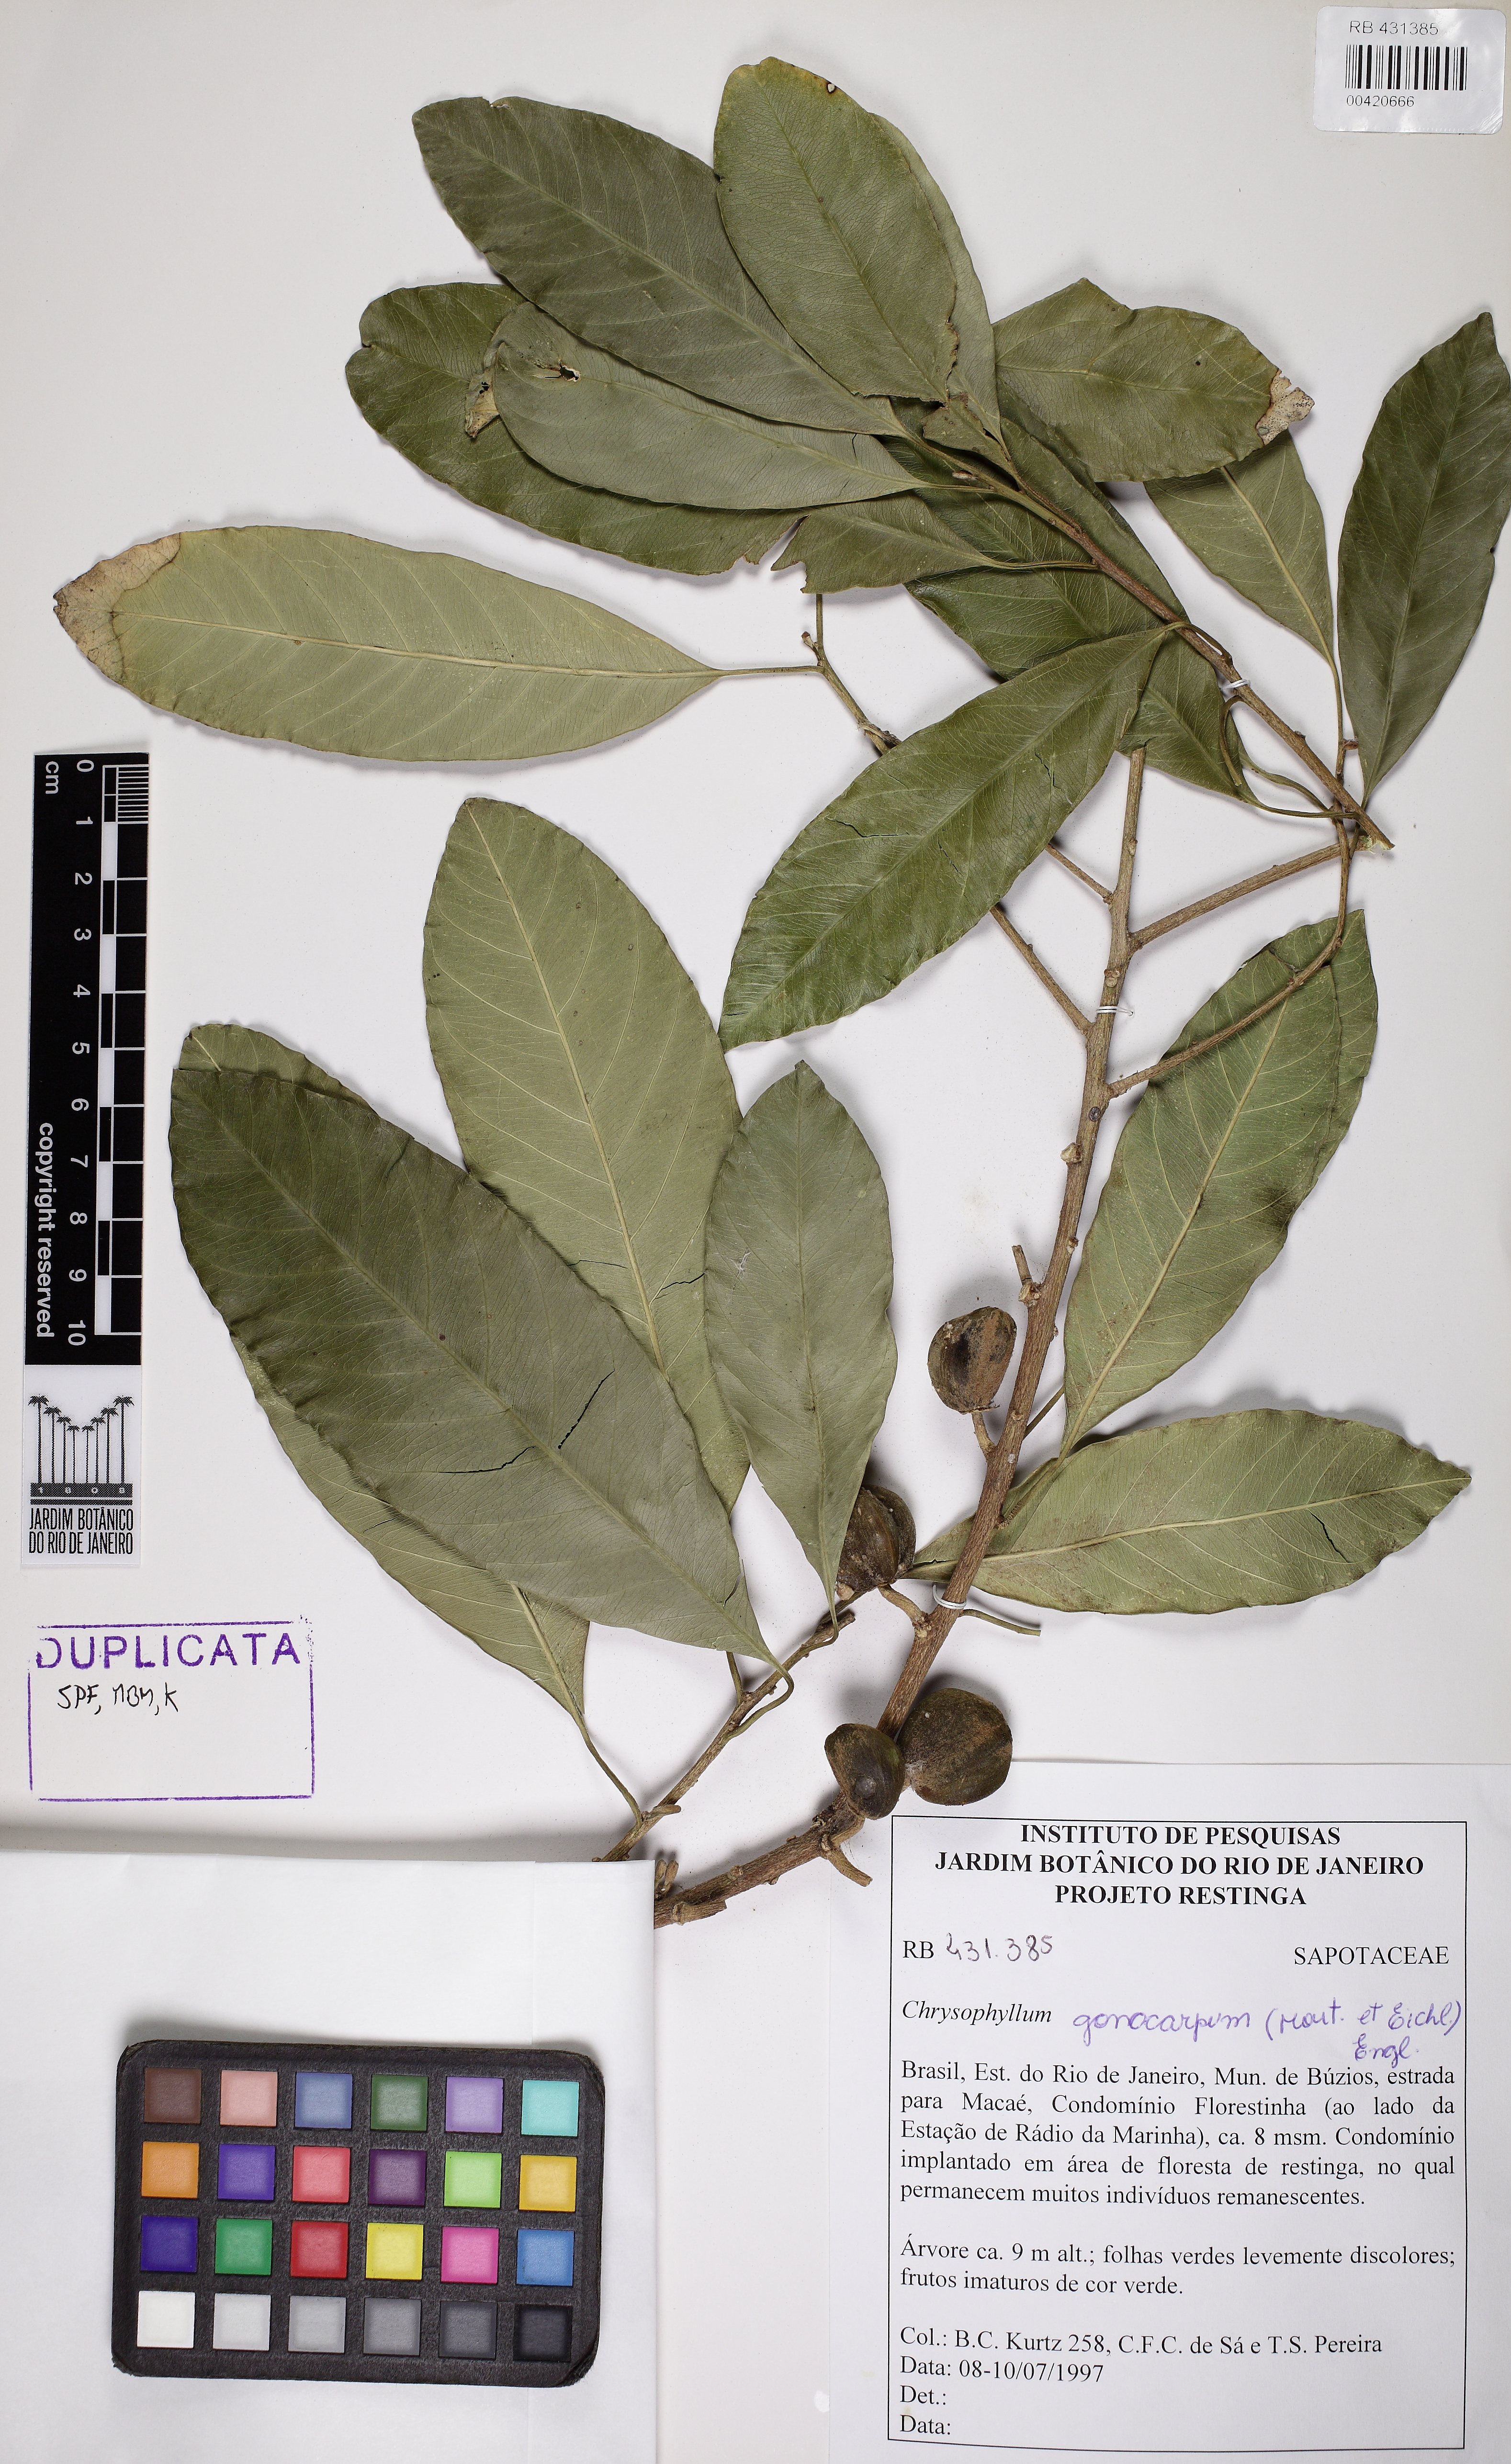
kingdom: Plantae
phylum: Tracheophyta
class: Magnoliopsida
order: Ericales
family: Sapotaceae
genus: Chrysophyllum
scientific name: Chrysophyllum gonocarpum
